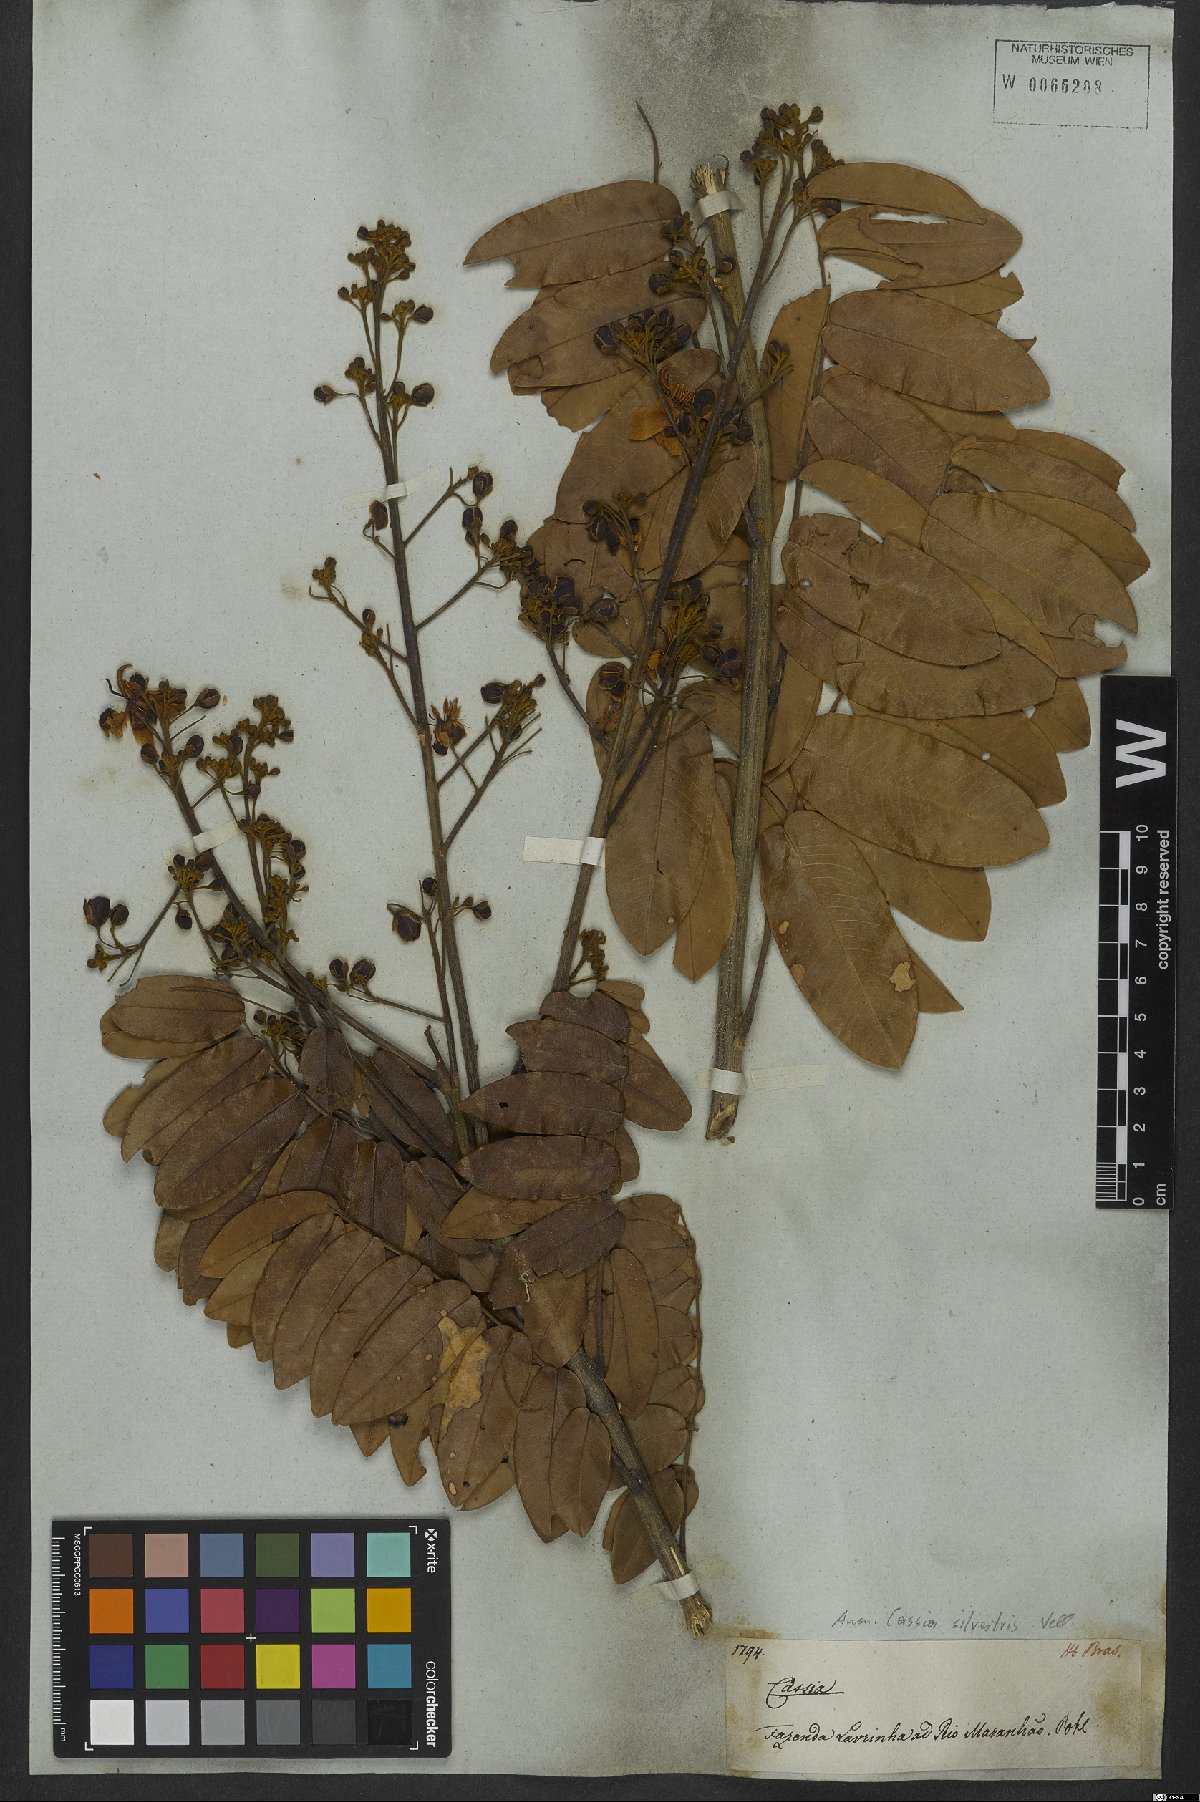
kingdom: Plantae
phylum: Tracheophyta
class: Magnoliopsida
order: Fabales
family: Fabaceae
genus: Senna
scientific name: Senna silvestris
